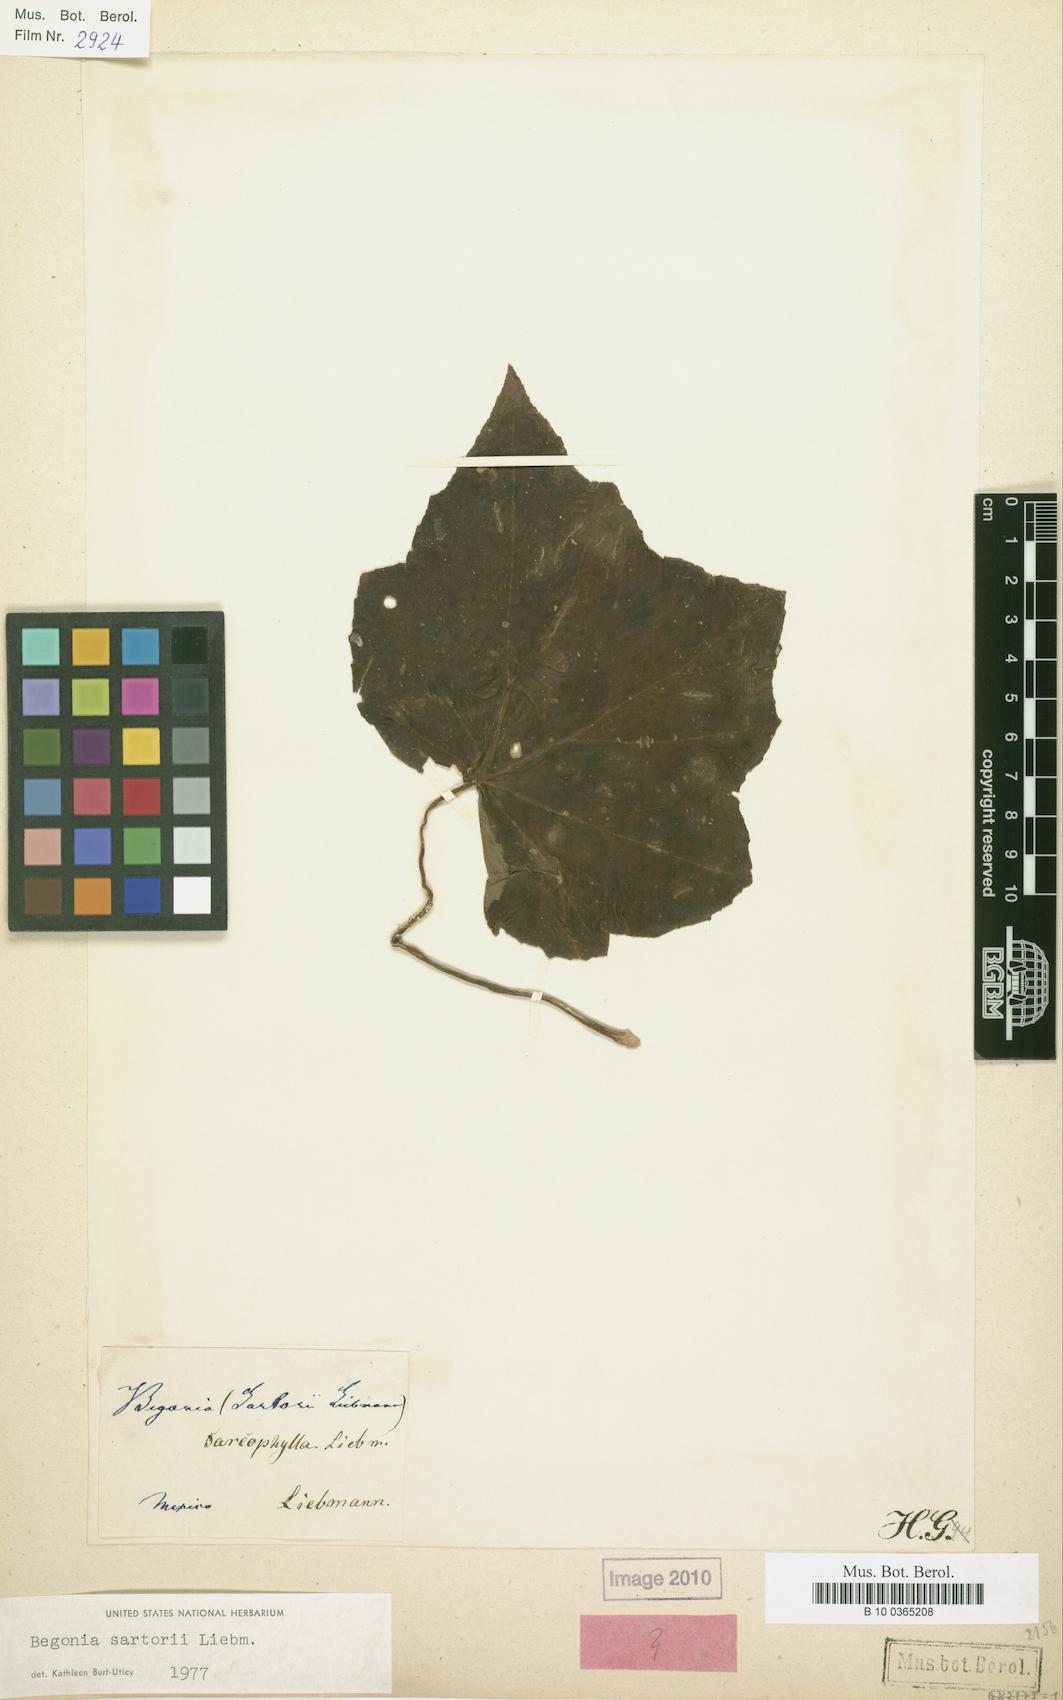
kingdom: Plantae
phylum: Tracheophyta
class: Magnoliopsida
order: Cucurbitales
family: Begoniaceae
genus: Begonia
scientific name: Begonia sartorii
